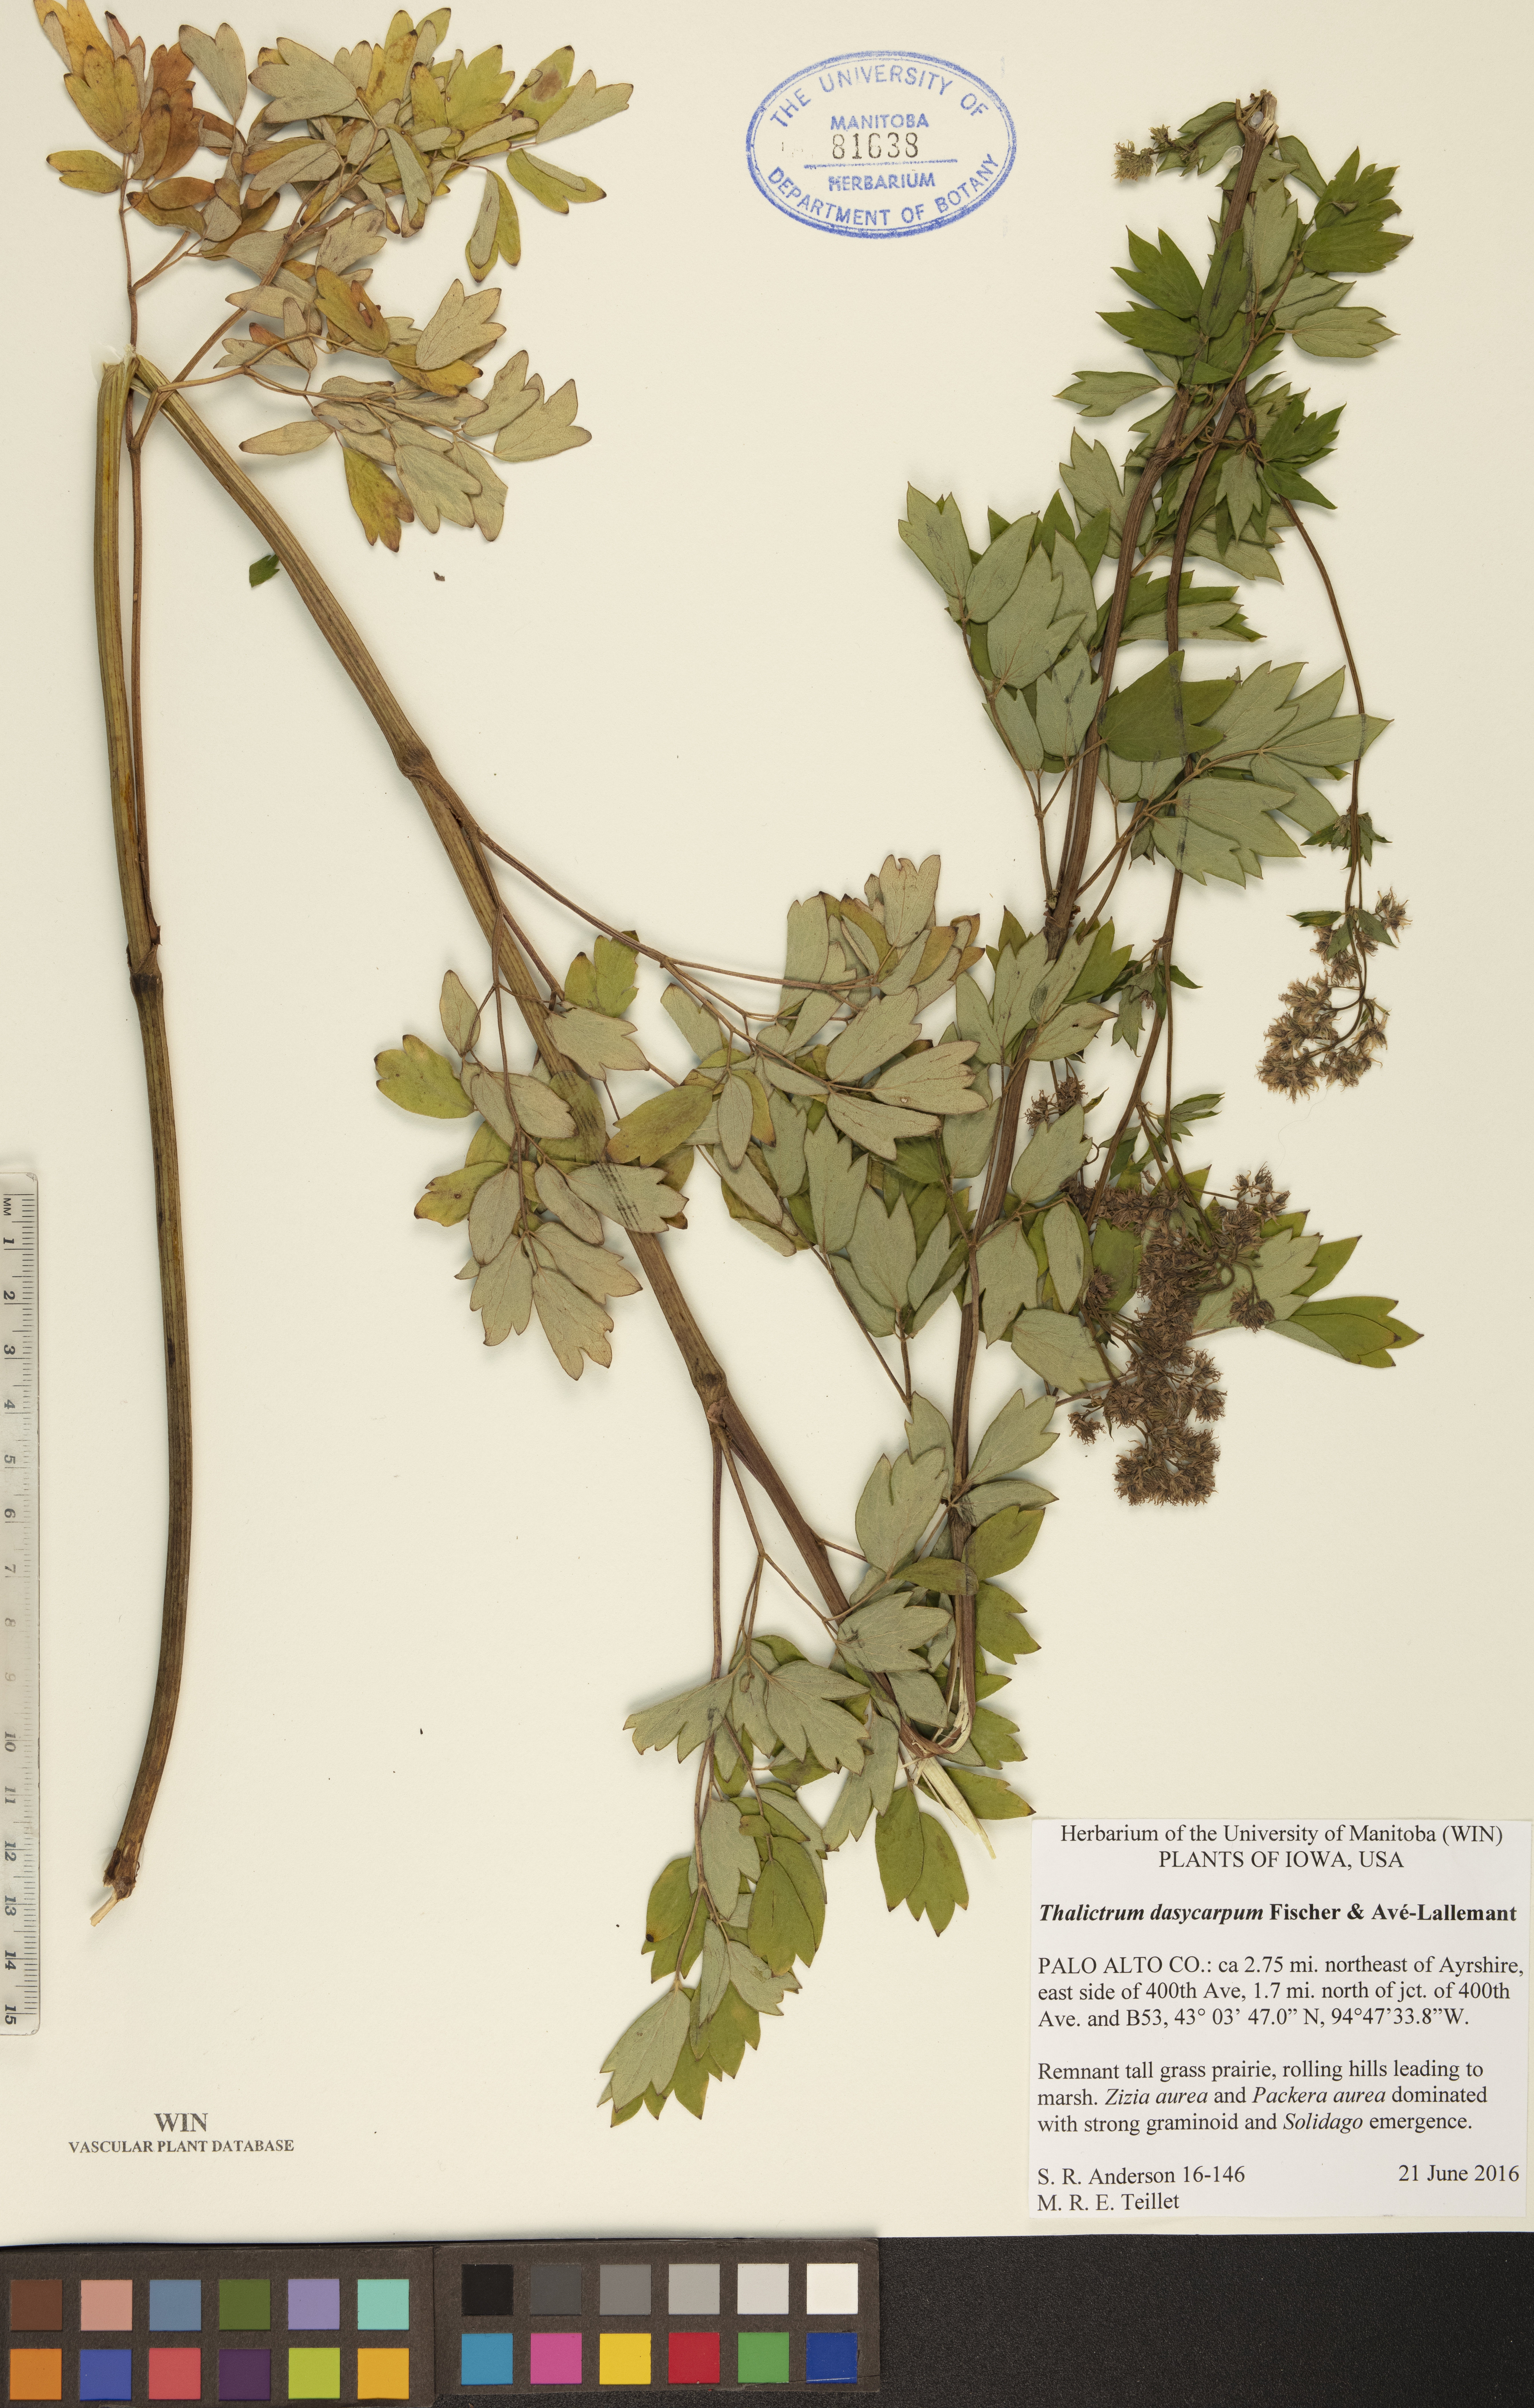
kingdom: Plantae
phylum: Tracheophyta
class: Magnoliopsida
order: Ranunculales
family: Ranunculaceae
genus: Thalictrum
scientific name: Thalictrum dasycarpum
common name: Purple meadow-rue
